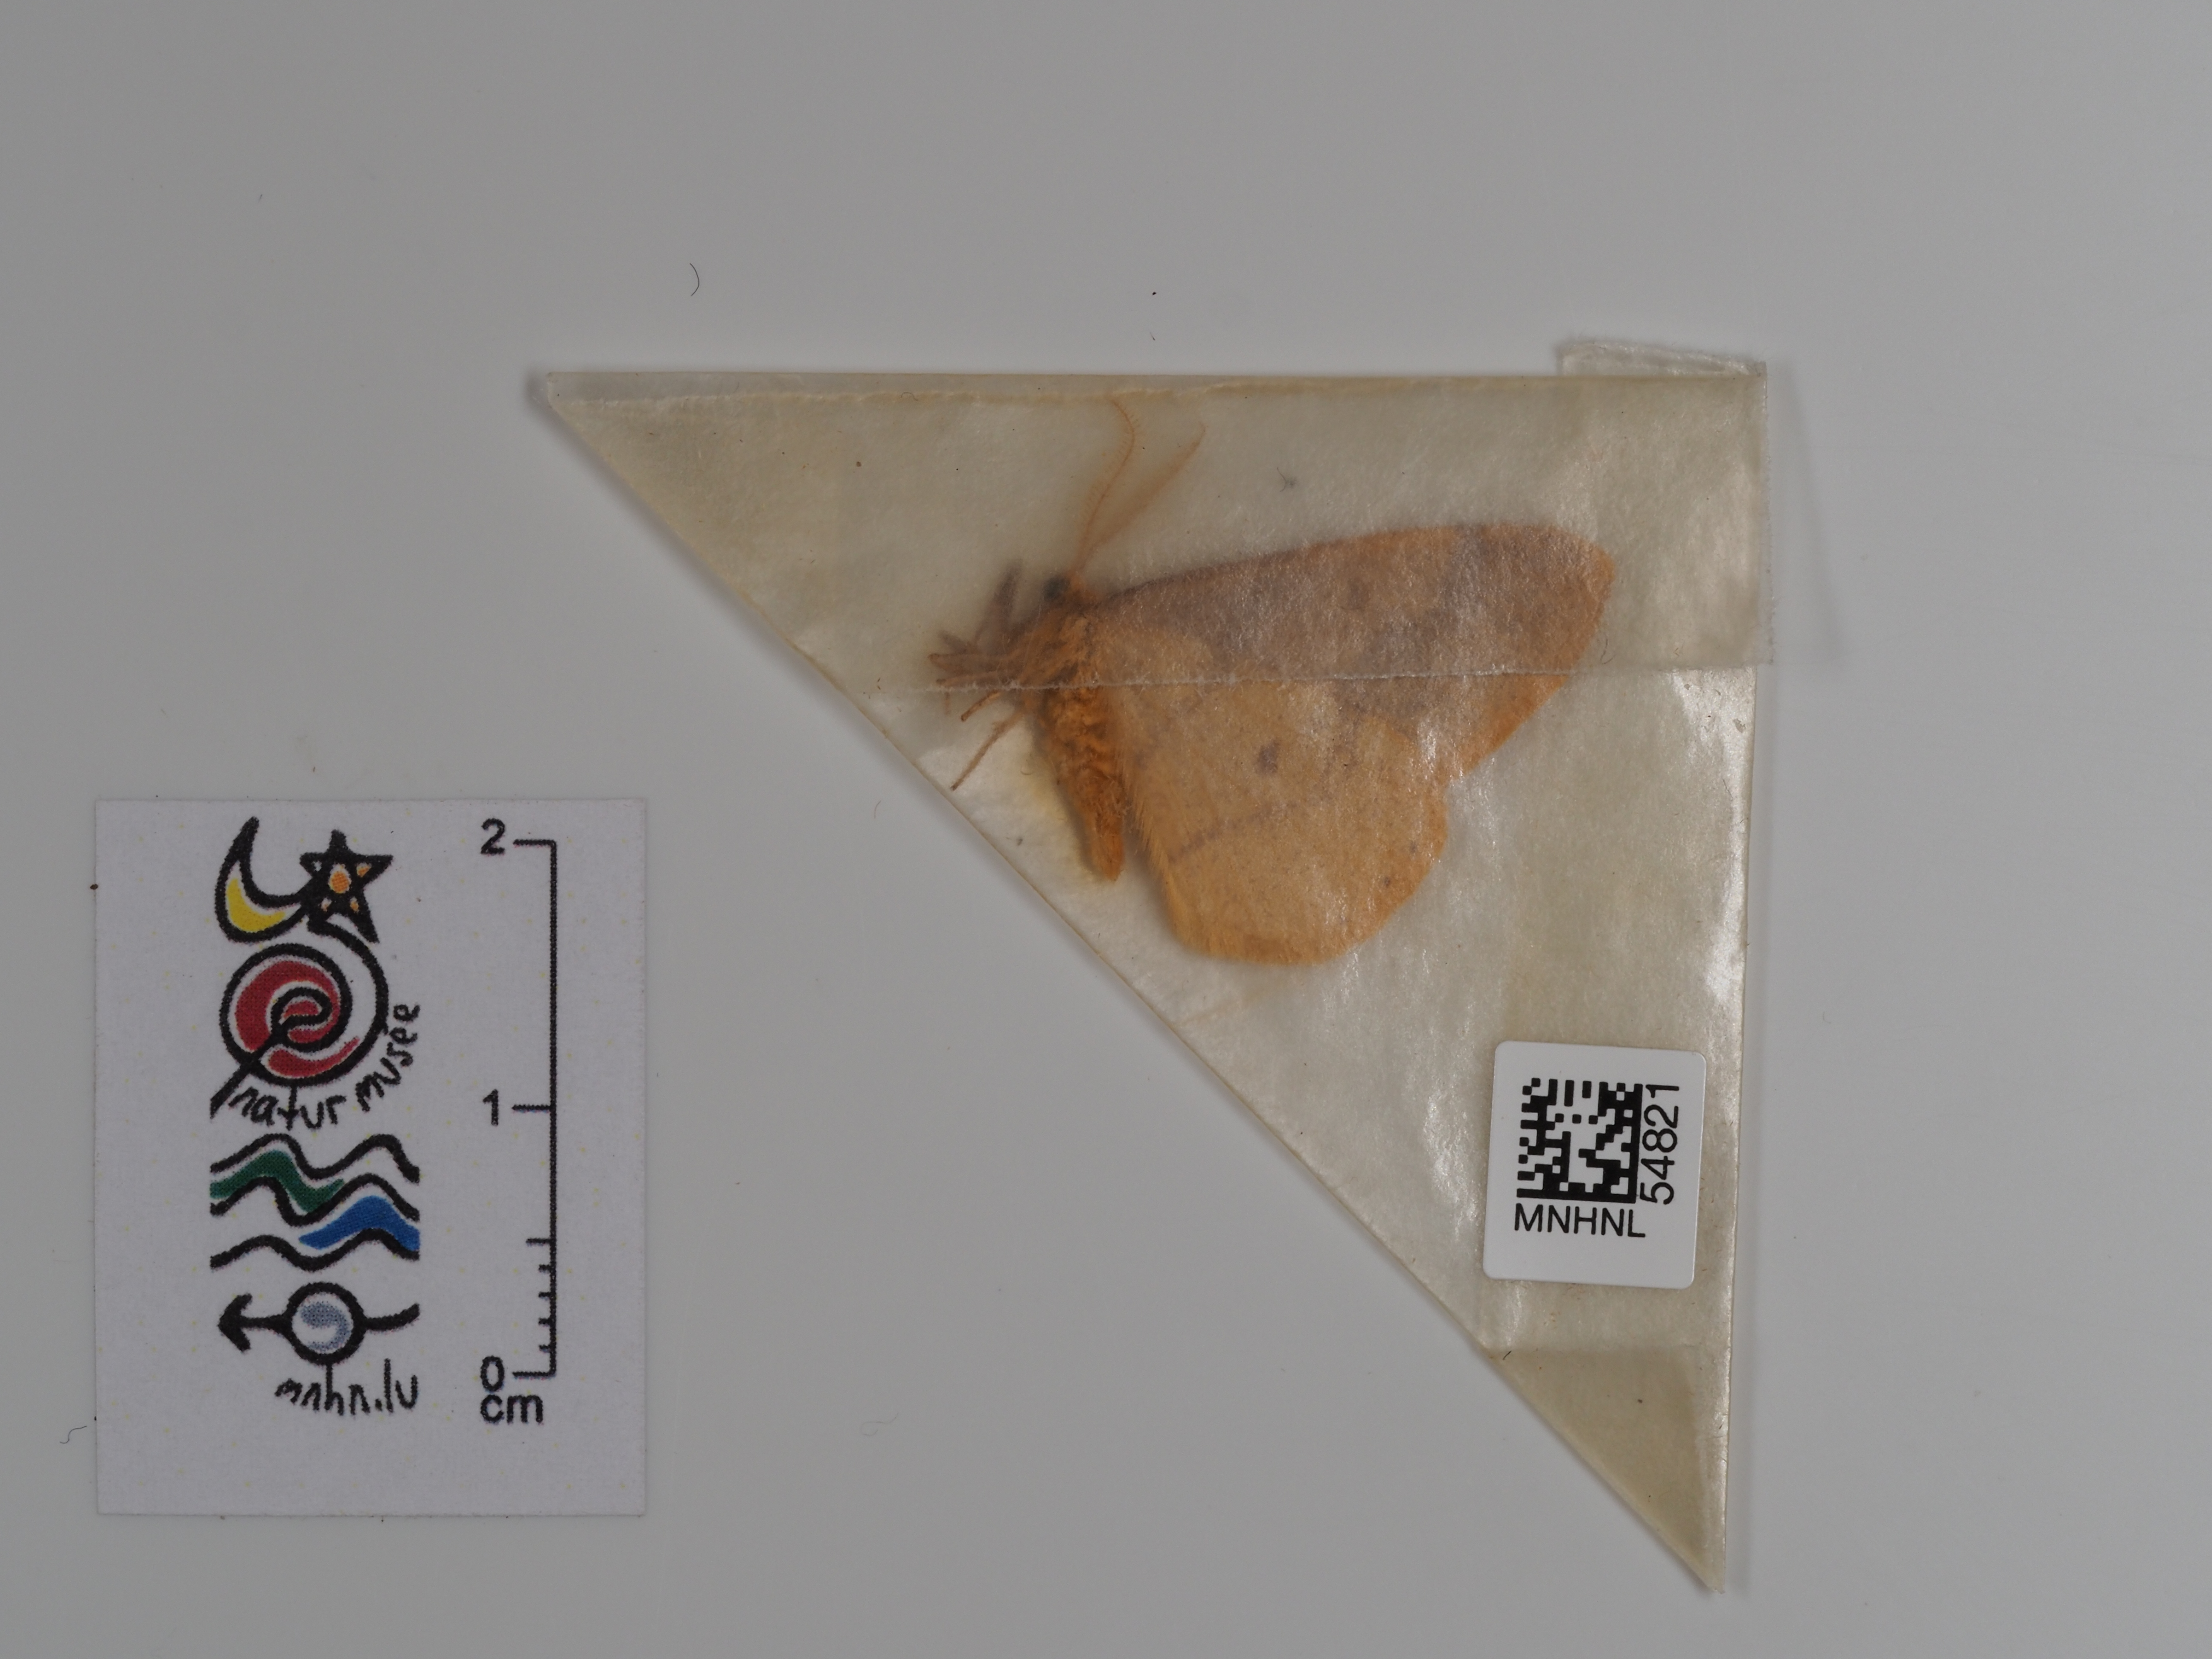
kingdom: Animalia
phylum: Arthropoda
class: Insecta
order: Lepidoptera
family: Geometridae
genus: Agriopis
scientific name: Agriopis aurantiaria
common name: Scarce umber
